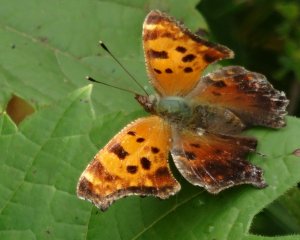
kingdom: Animalia
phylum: Arthropoda
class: Insecta
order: Lepidoptera
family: Nymphalidae
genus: Polygonia
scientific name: Polygonia comma
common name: Eastern Comma
